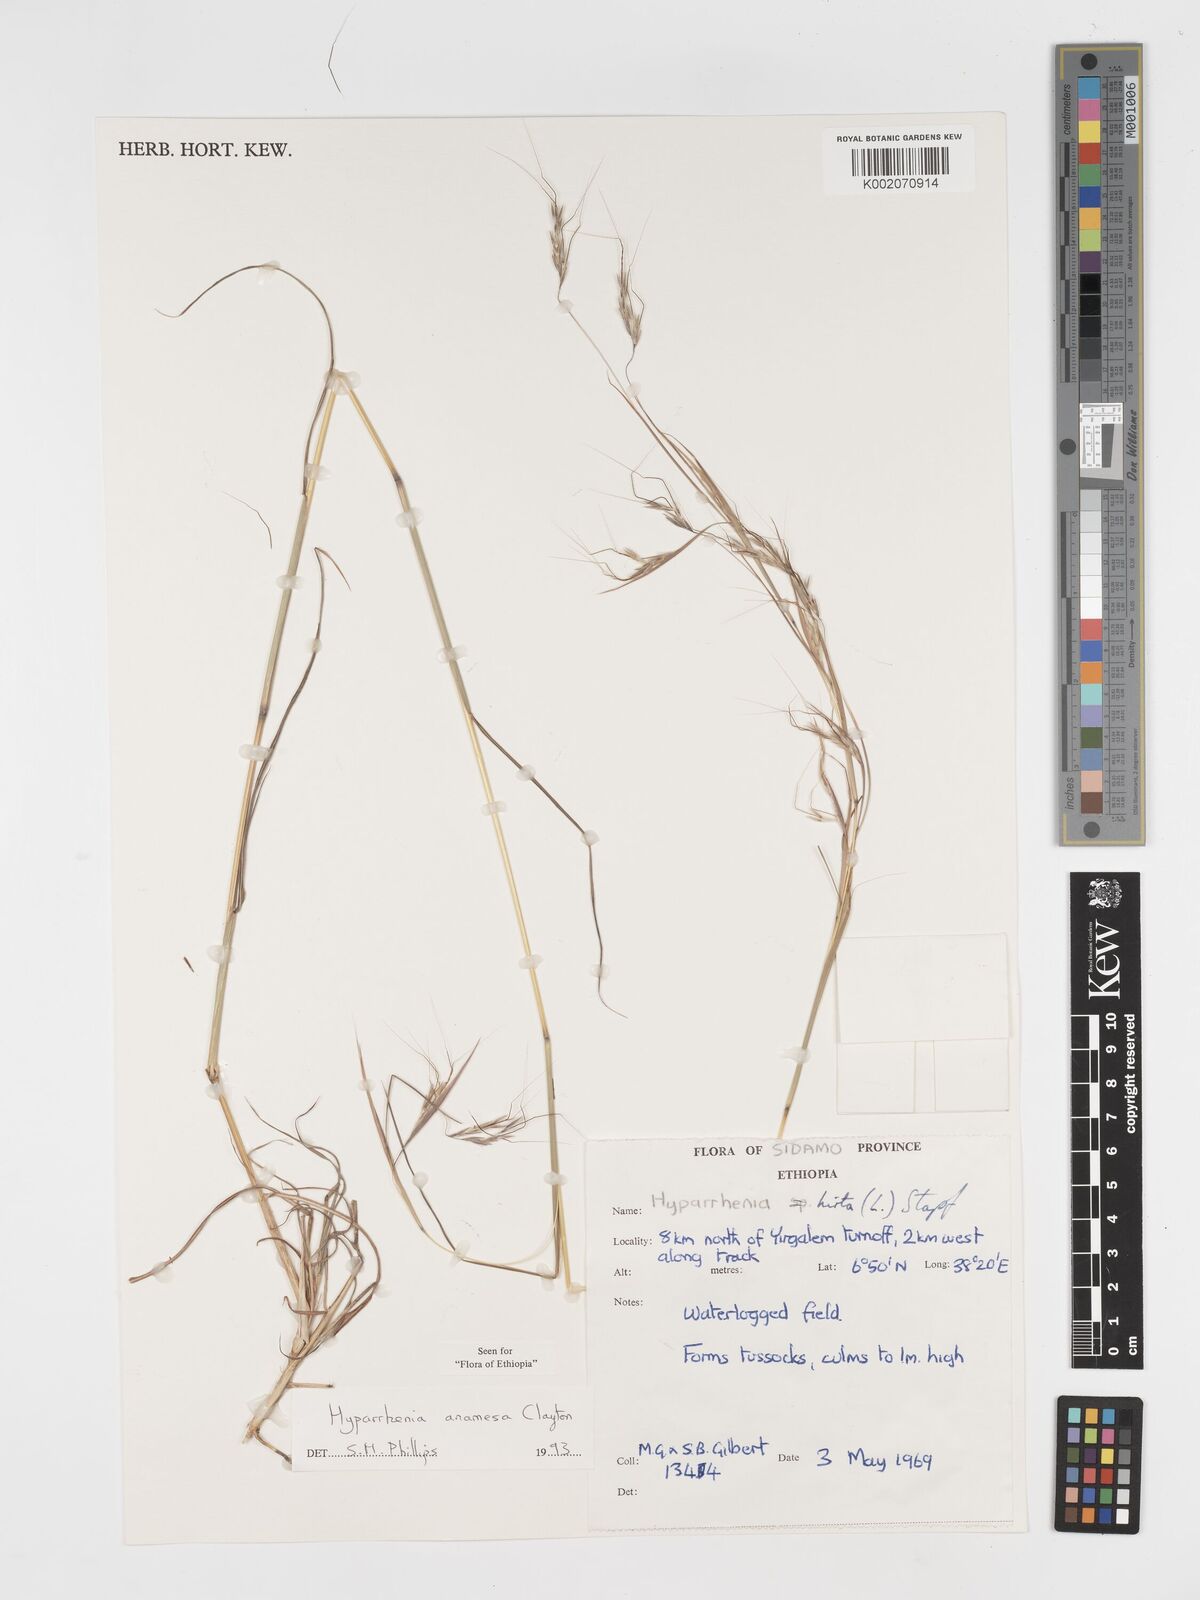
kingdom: Plantae
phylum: Tracheophyta
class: Liliopsida
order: Poales
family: Poaceae
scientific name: Poaceae
